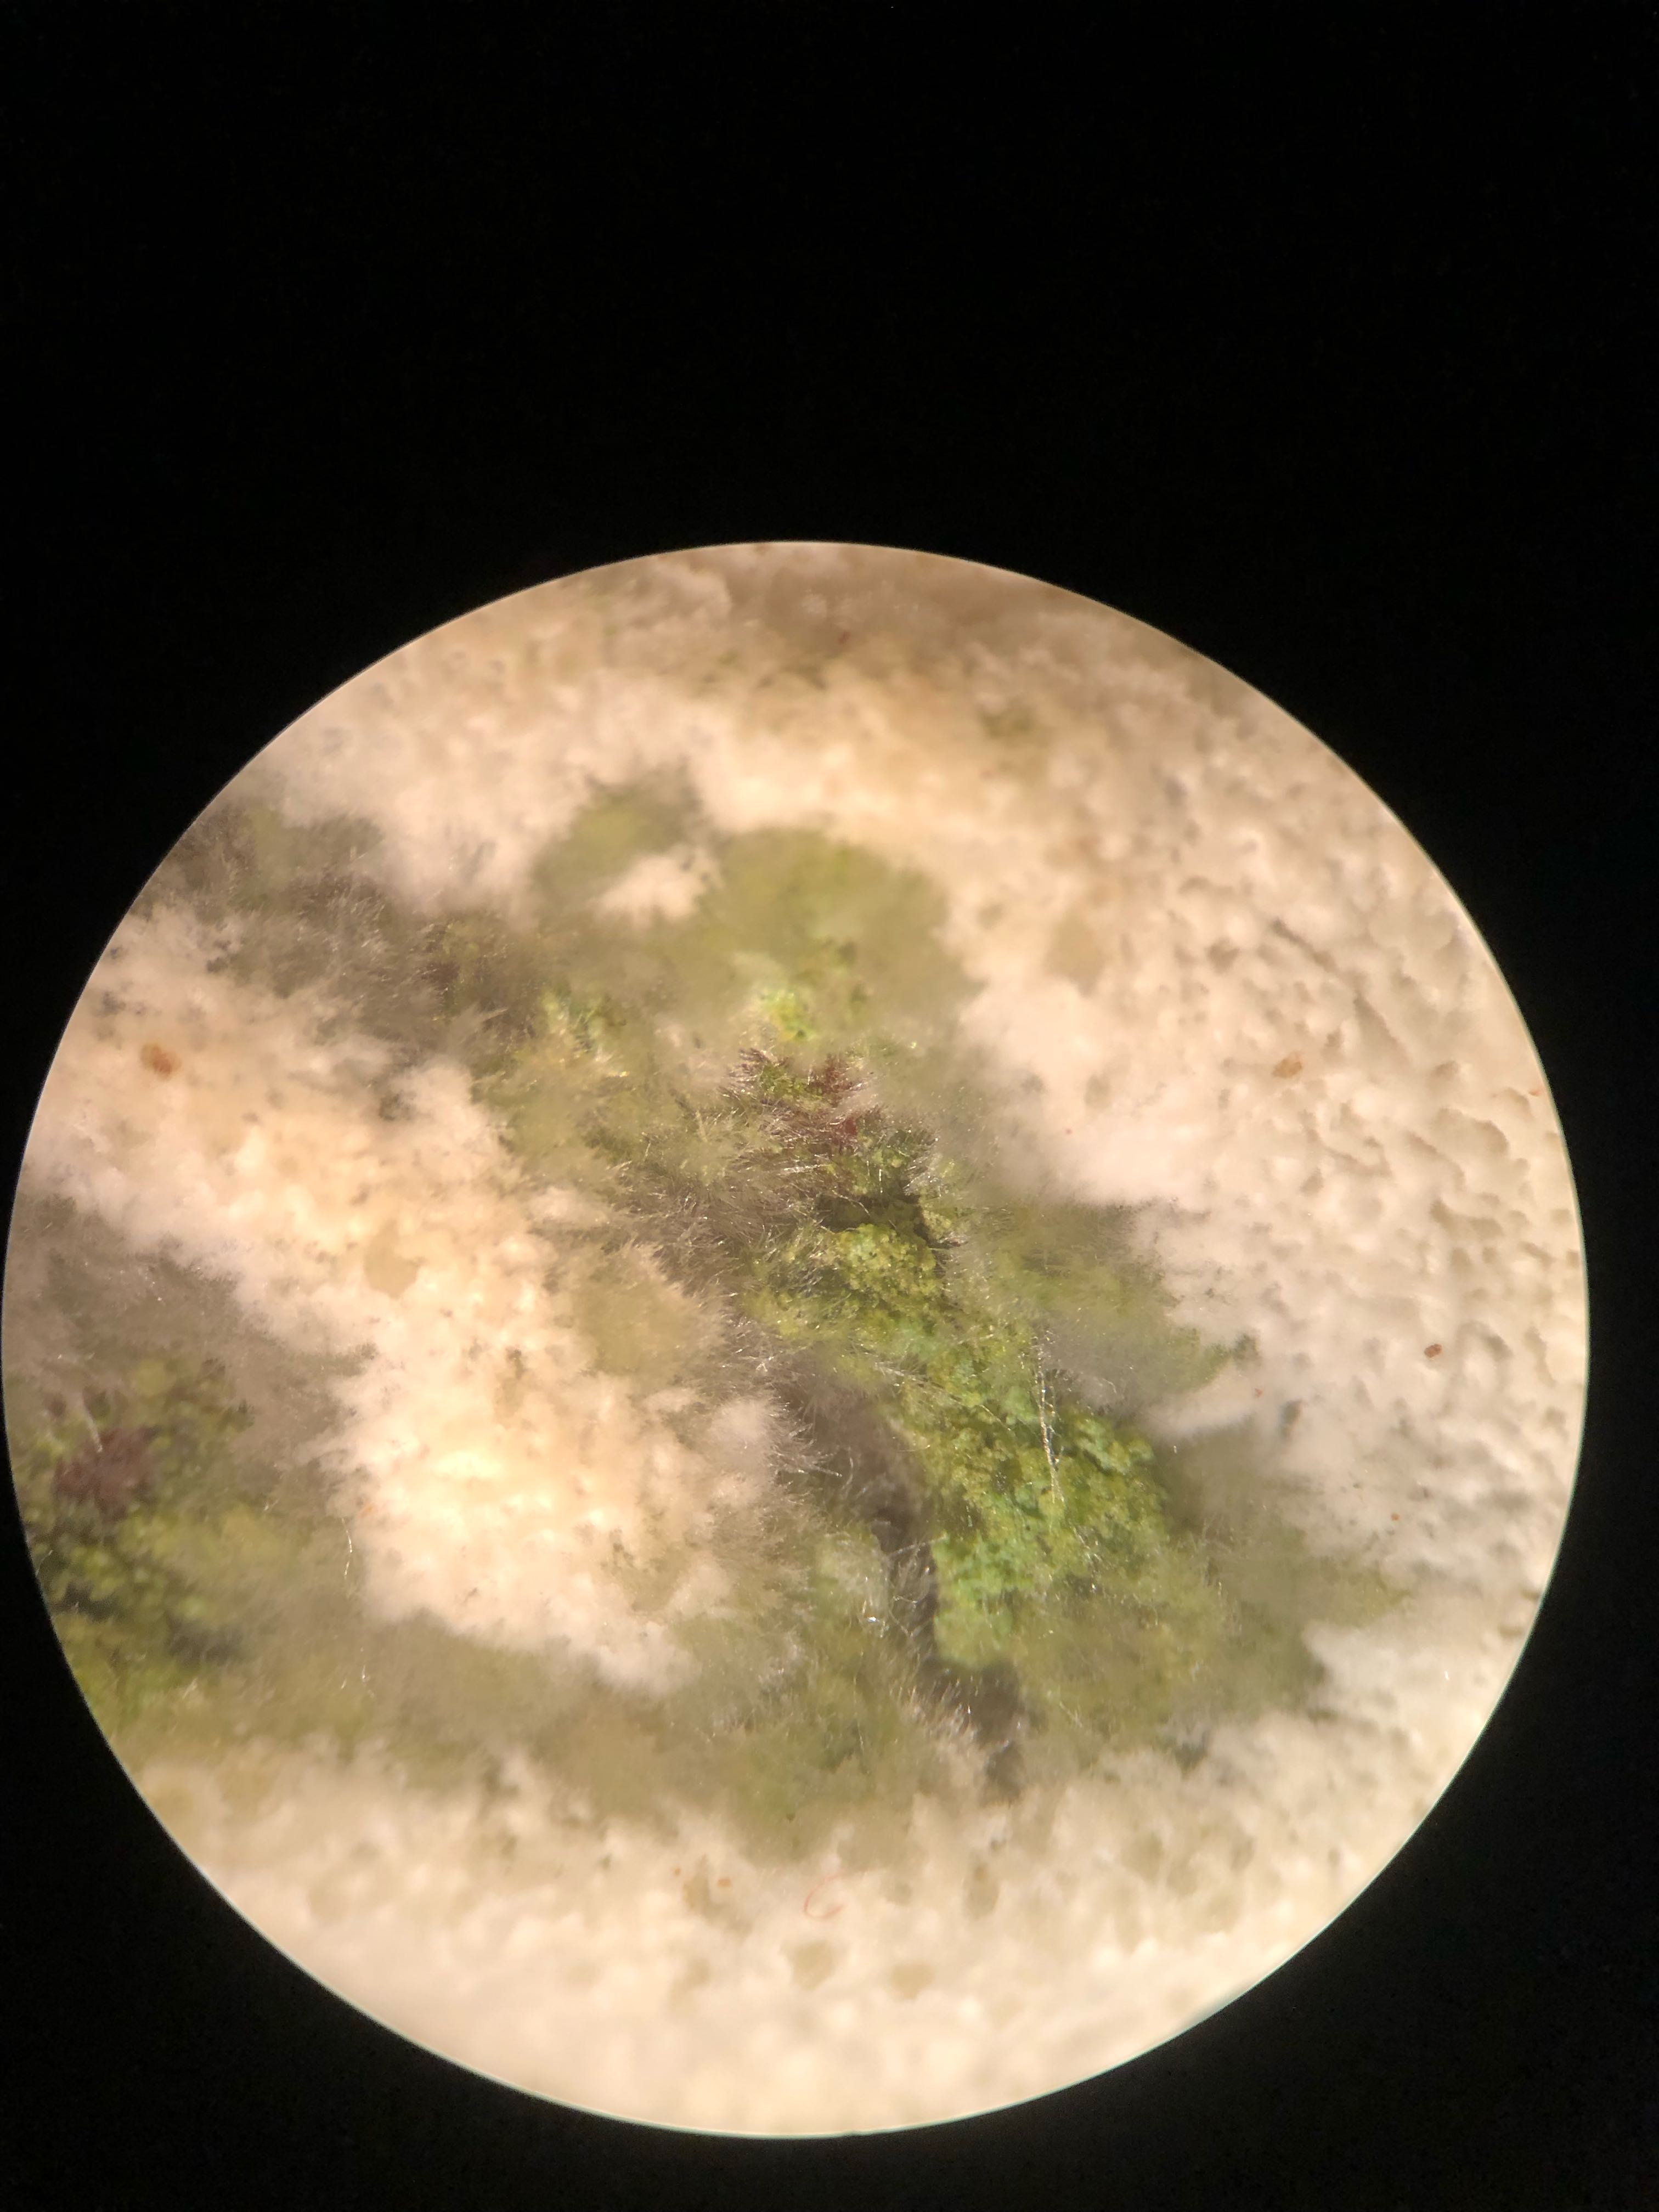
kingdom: Fungi
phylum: Basidiomycota
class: Agaricomycetes
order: Hymenochaetales
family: Schizoporaceae
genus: Xylodon
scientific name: Xylodon subtropicus
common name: labyrint-tandsvamp
